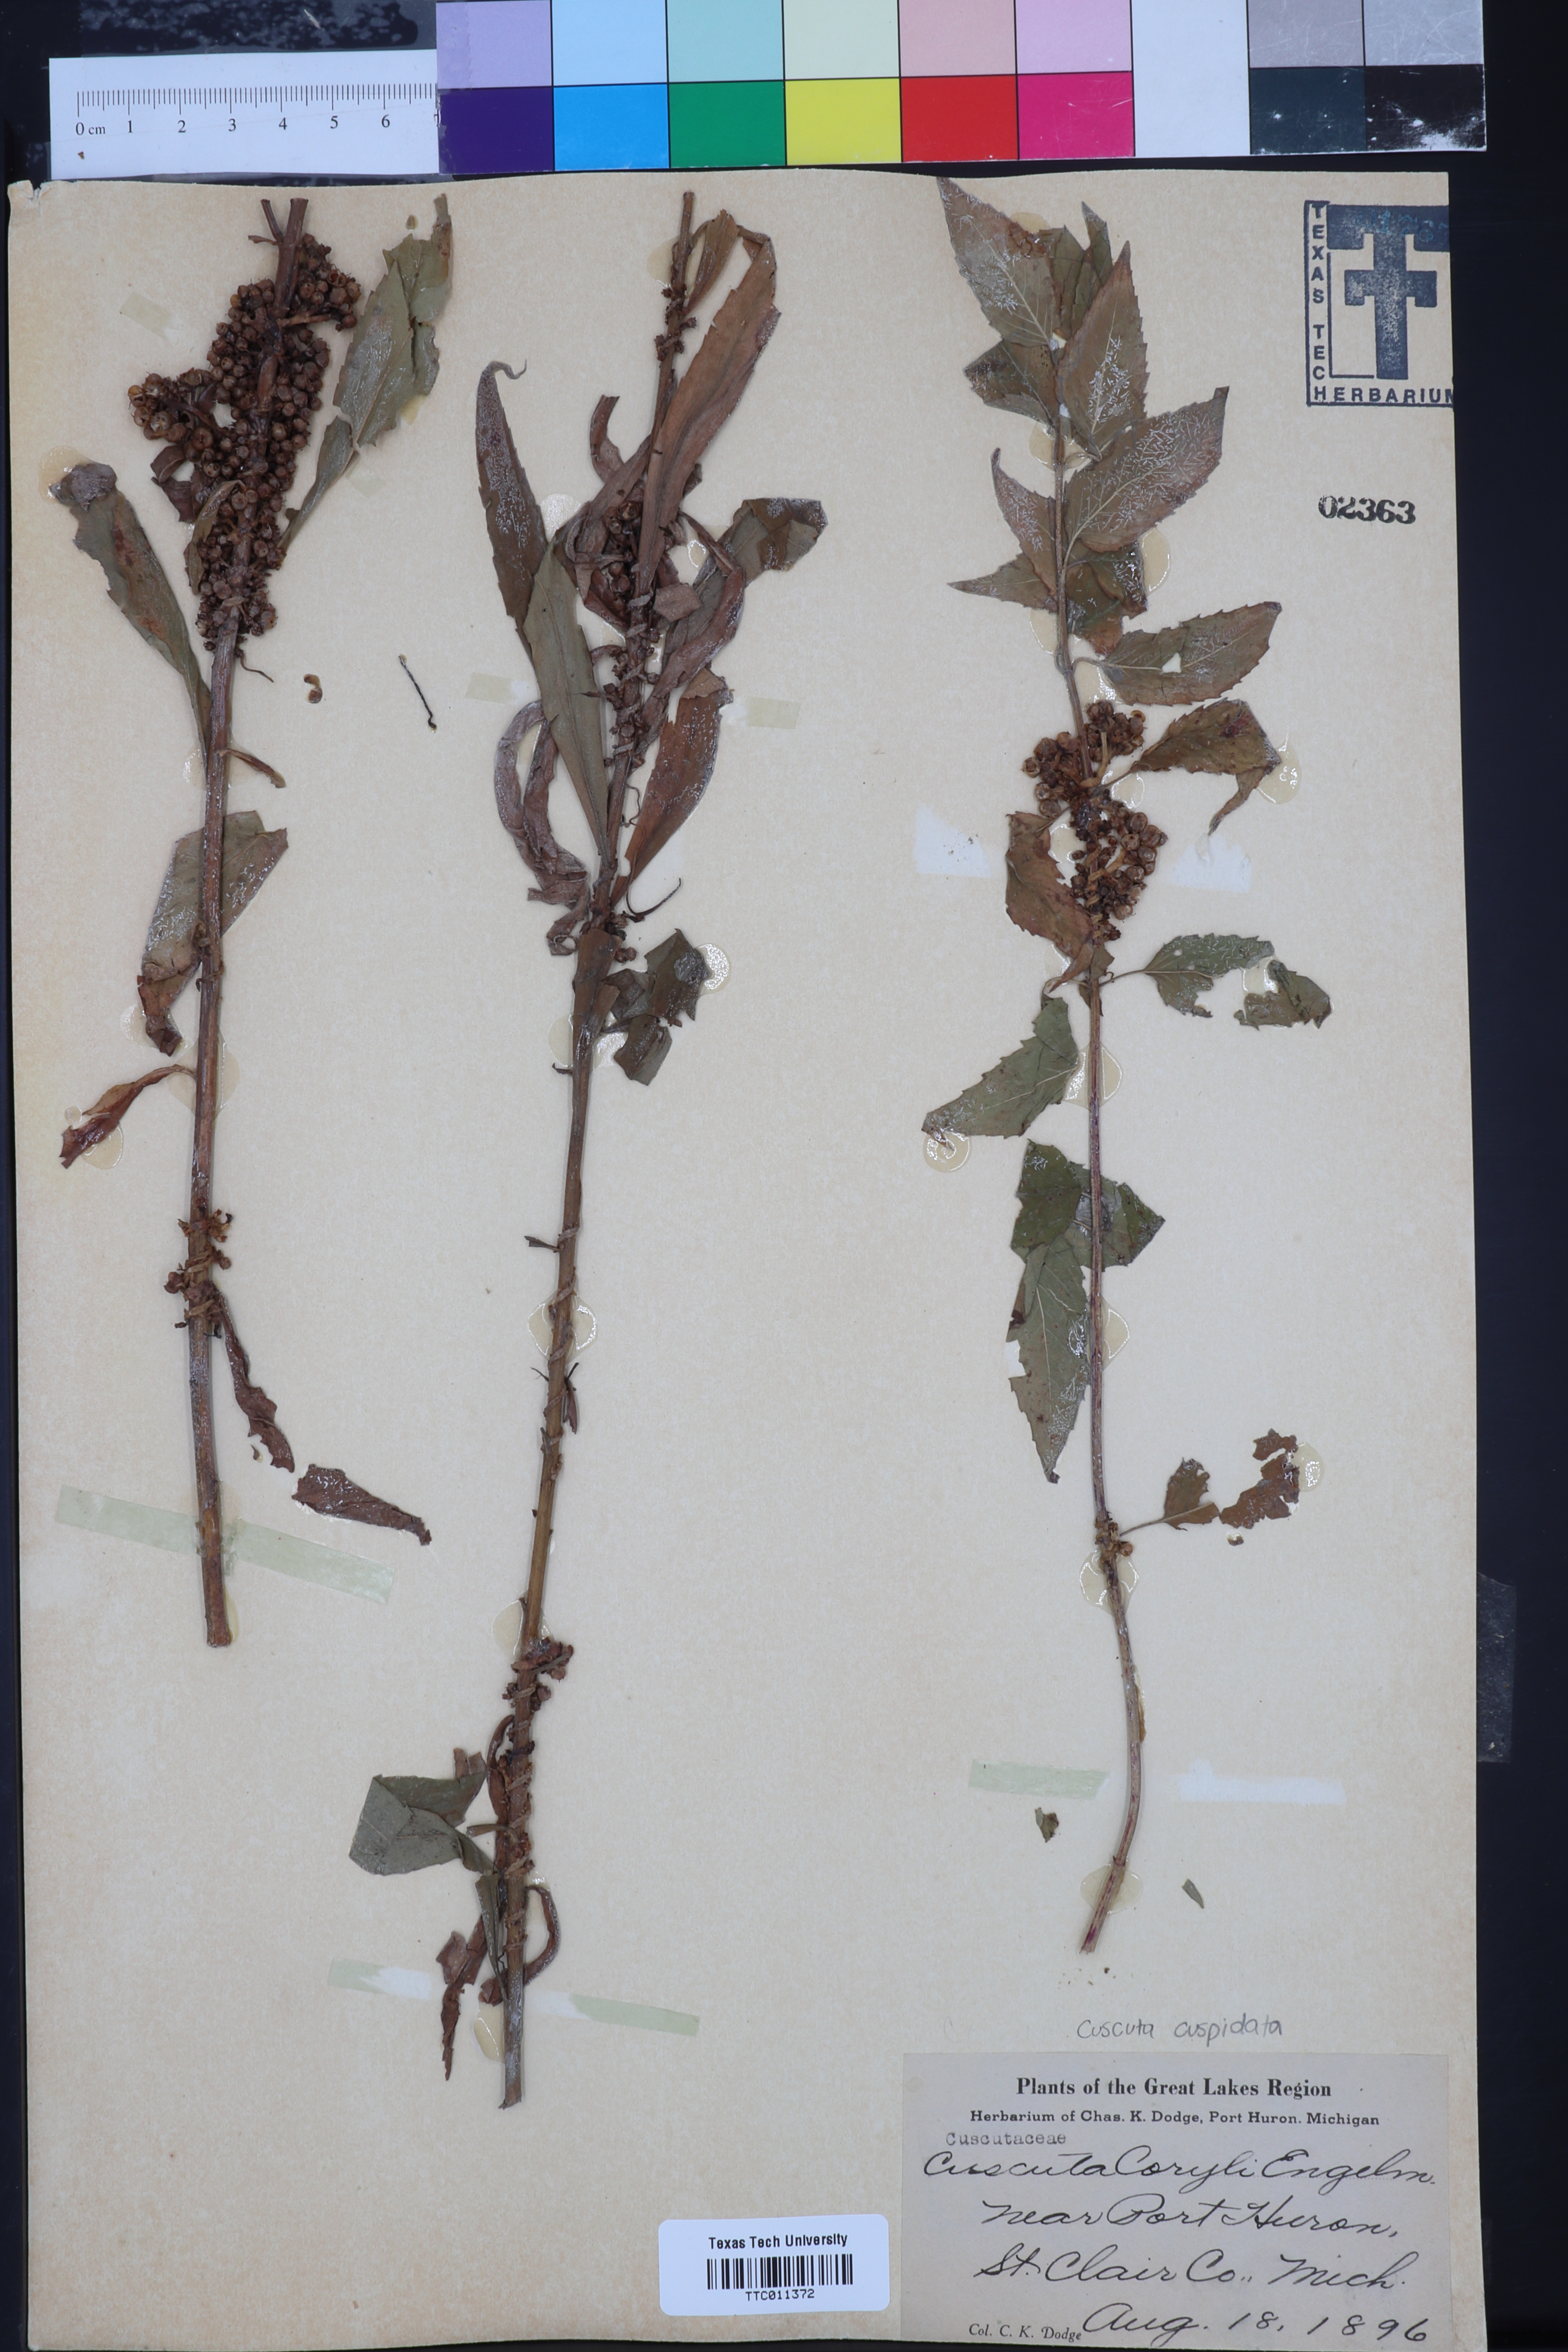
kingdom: Plantae
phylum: Tracheophyta
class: Magnoliopsida
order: Solanales
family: Convolvulaceae
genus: Cuscuta
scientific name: Cuscuta coryli
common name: Hazel dodder
